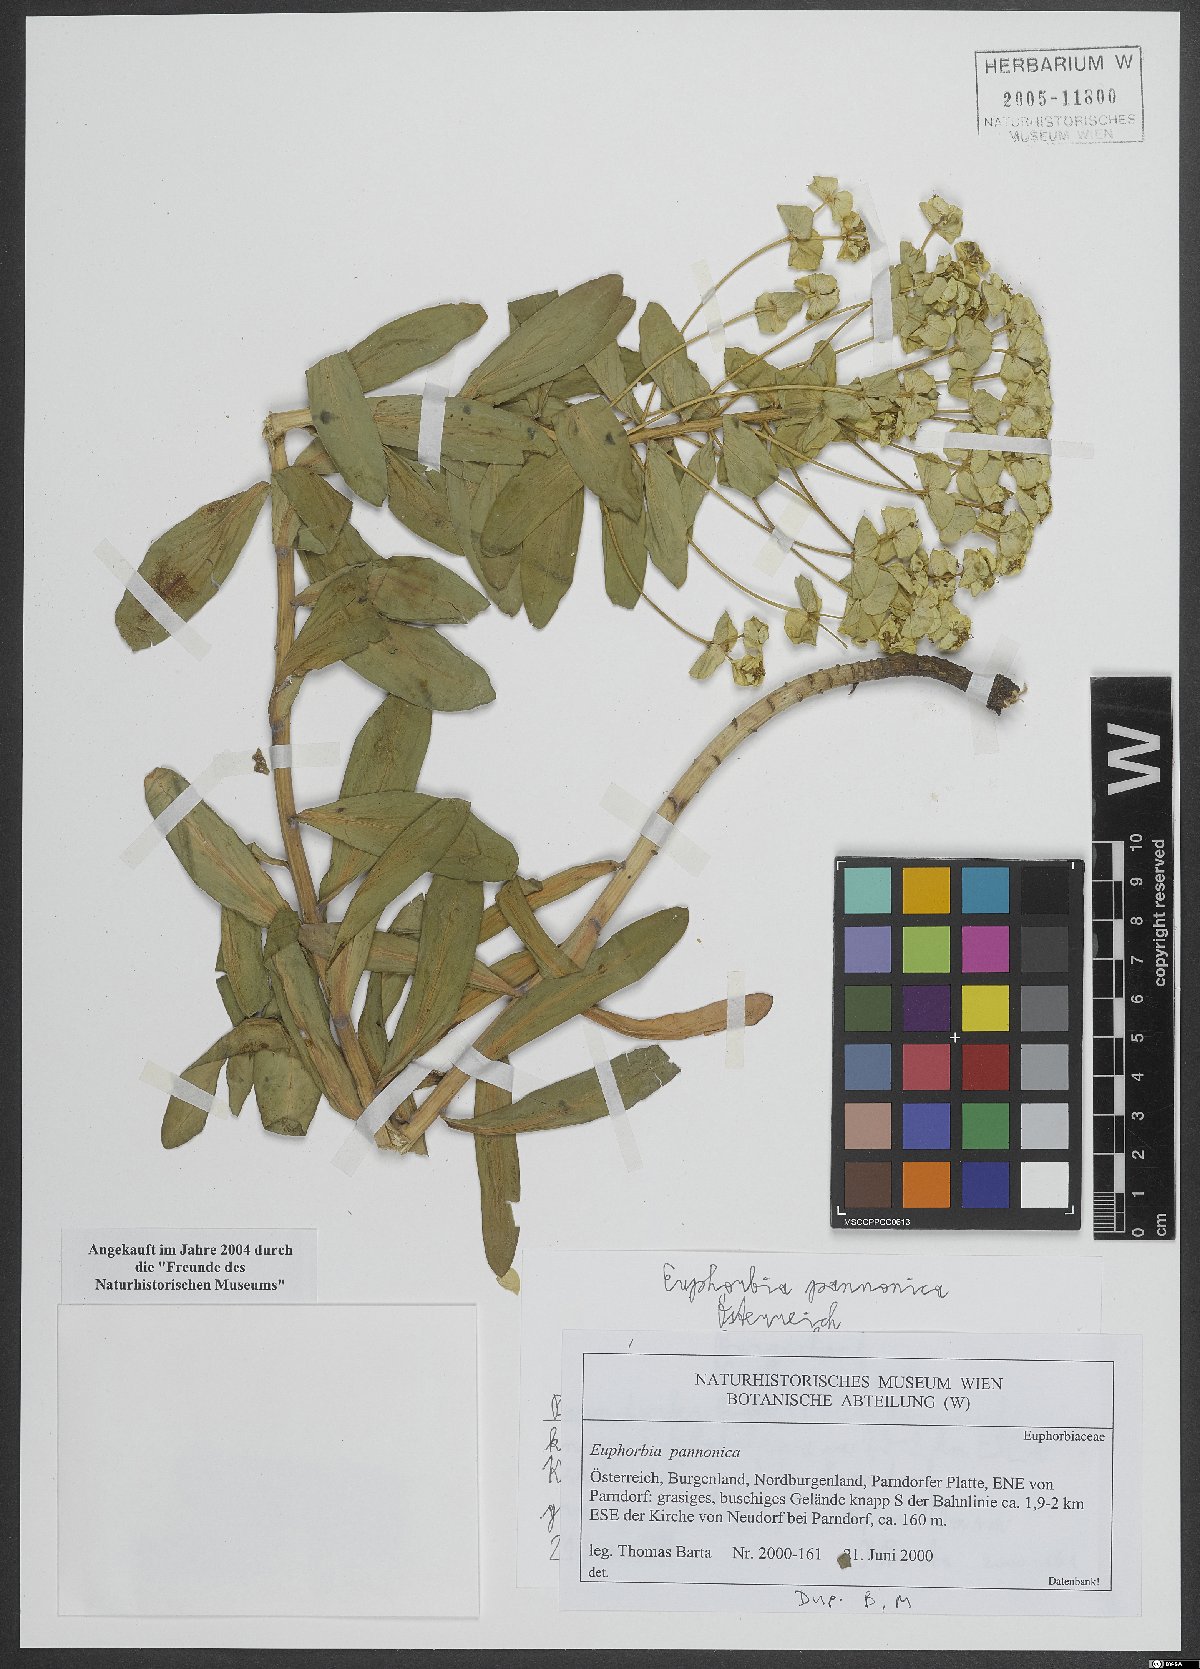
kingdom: Plantae
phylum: Tracheophyta
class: Magnoliopsida
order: Malpighiales
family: Euphorbiaceae
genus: Euphorbia
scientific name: Euphorbia pannonica
